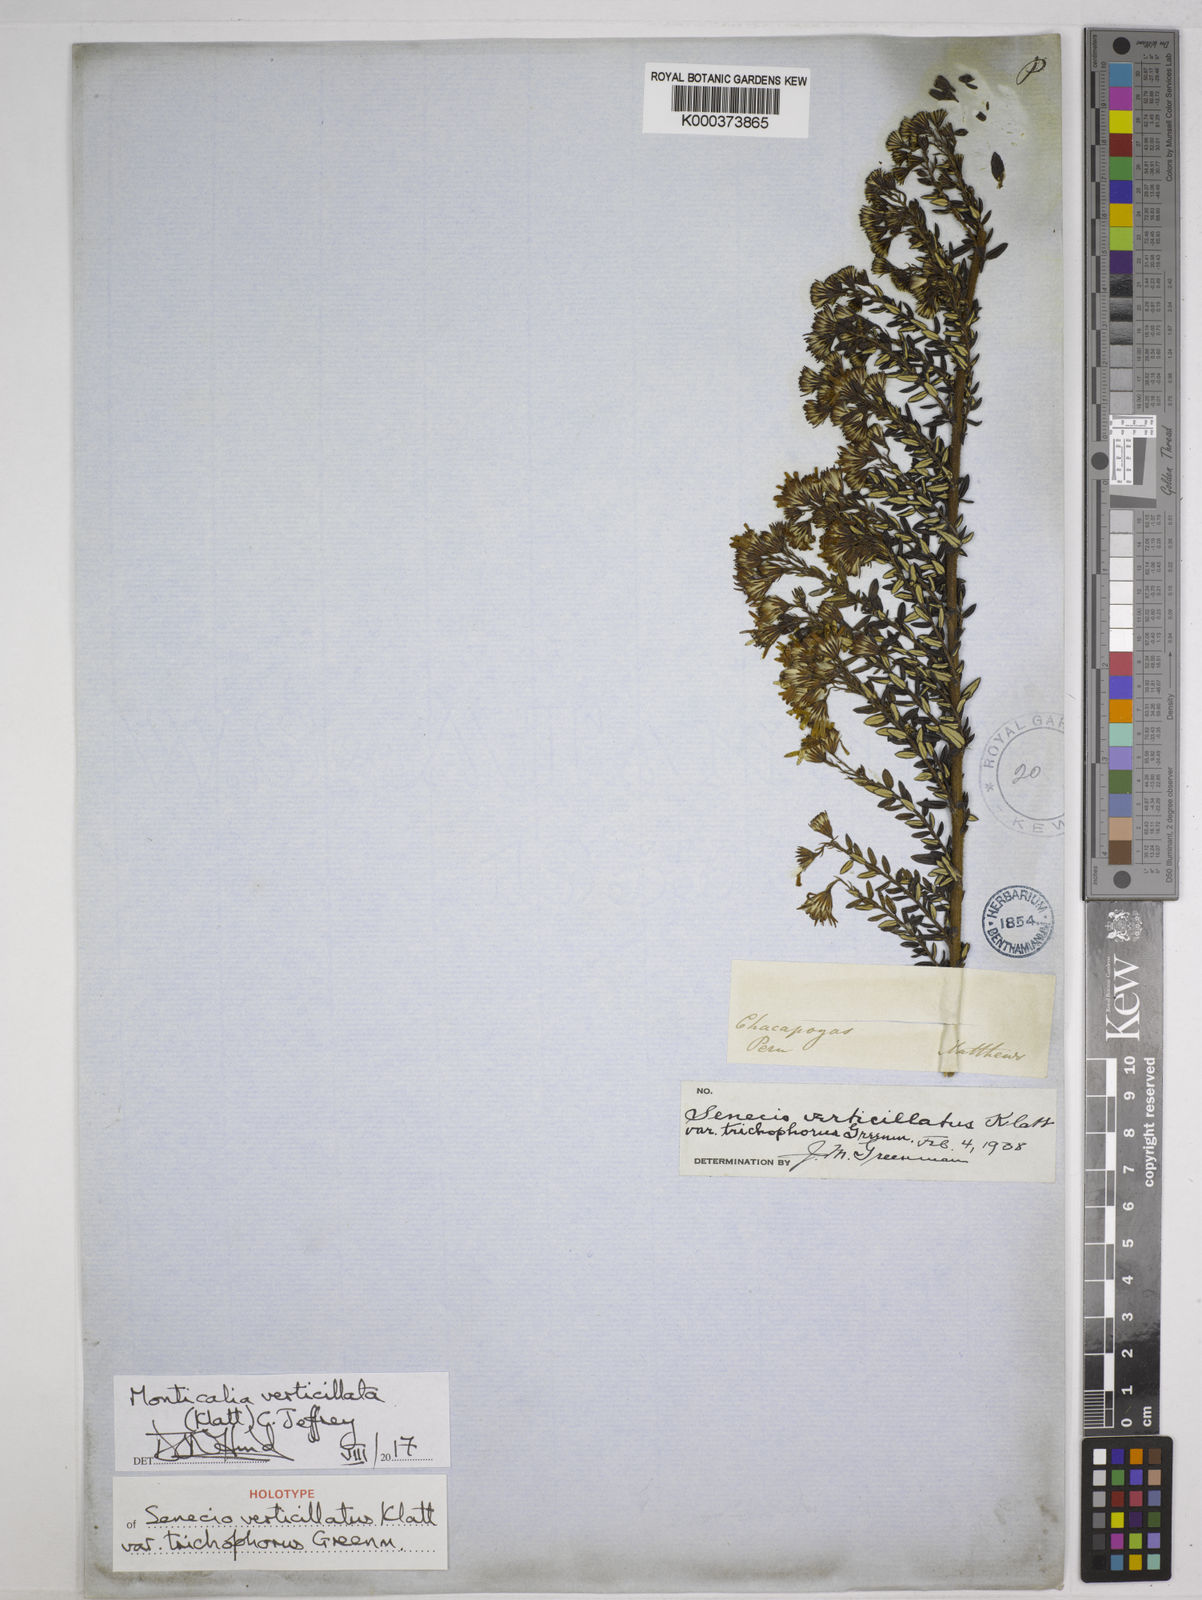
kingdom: Plantae
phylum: Tracheophyta
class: Magnoliopsida
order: Asterales
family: Asteraceae
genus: Monticalia
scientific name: Monticalia verticillata
